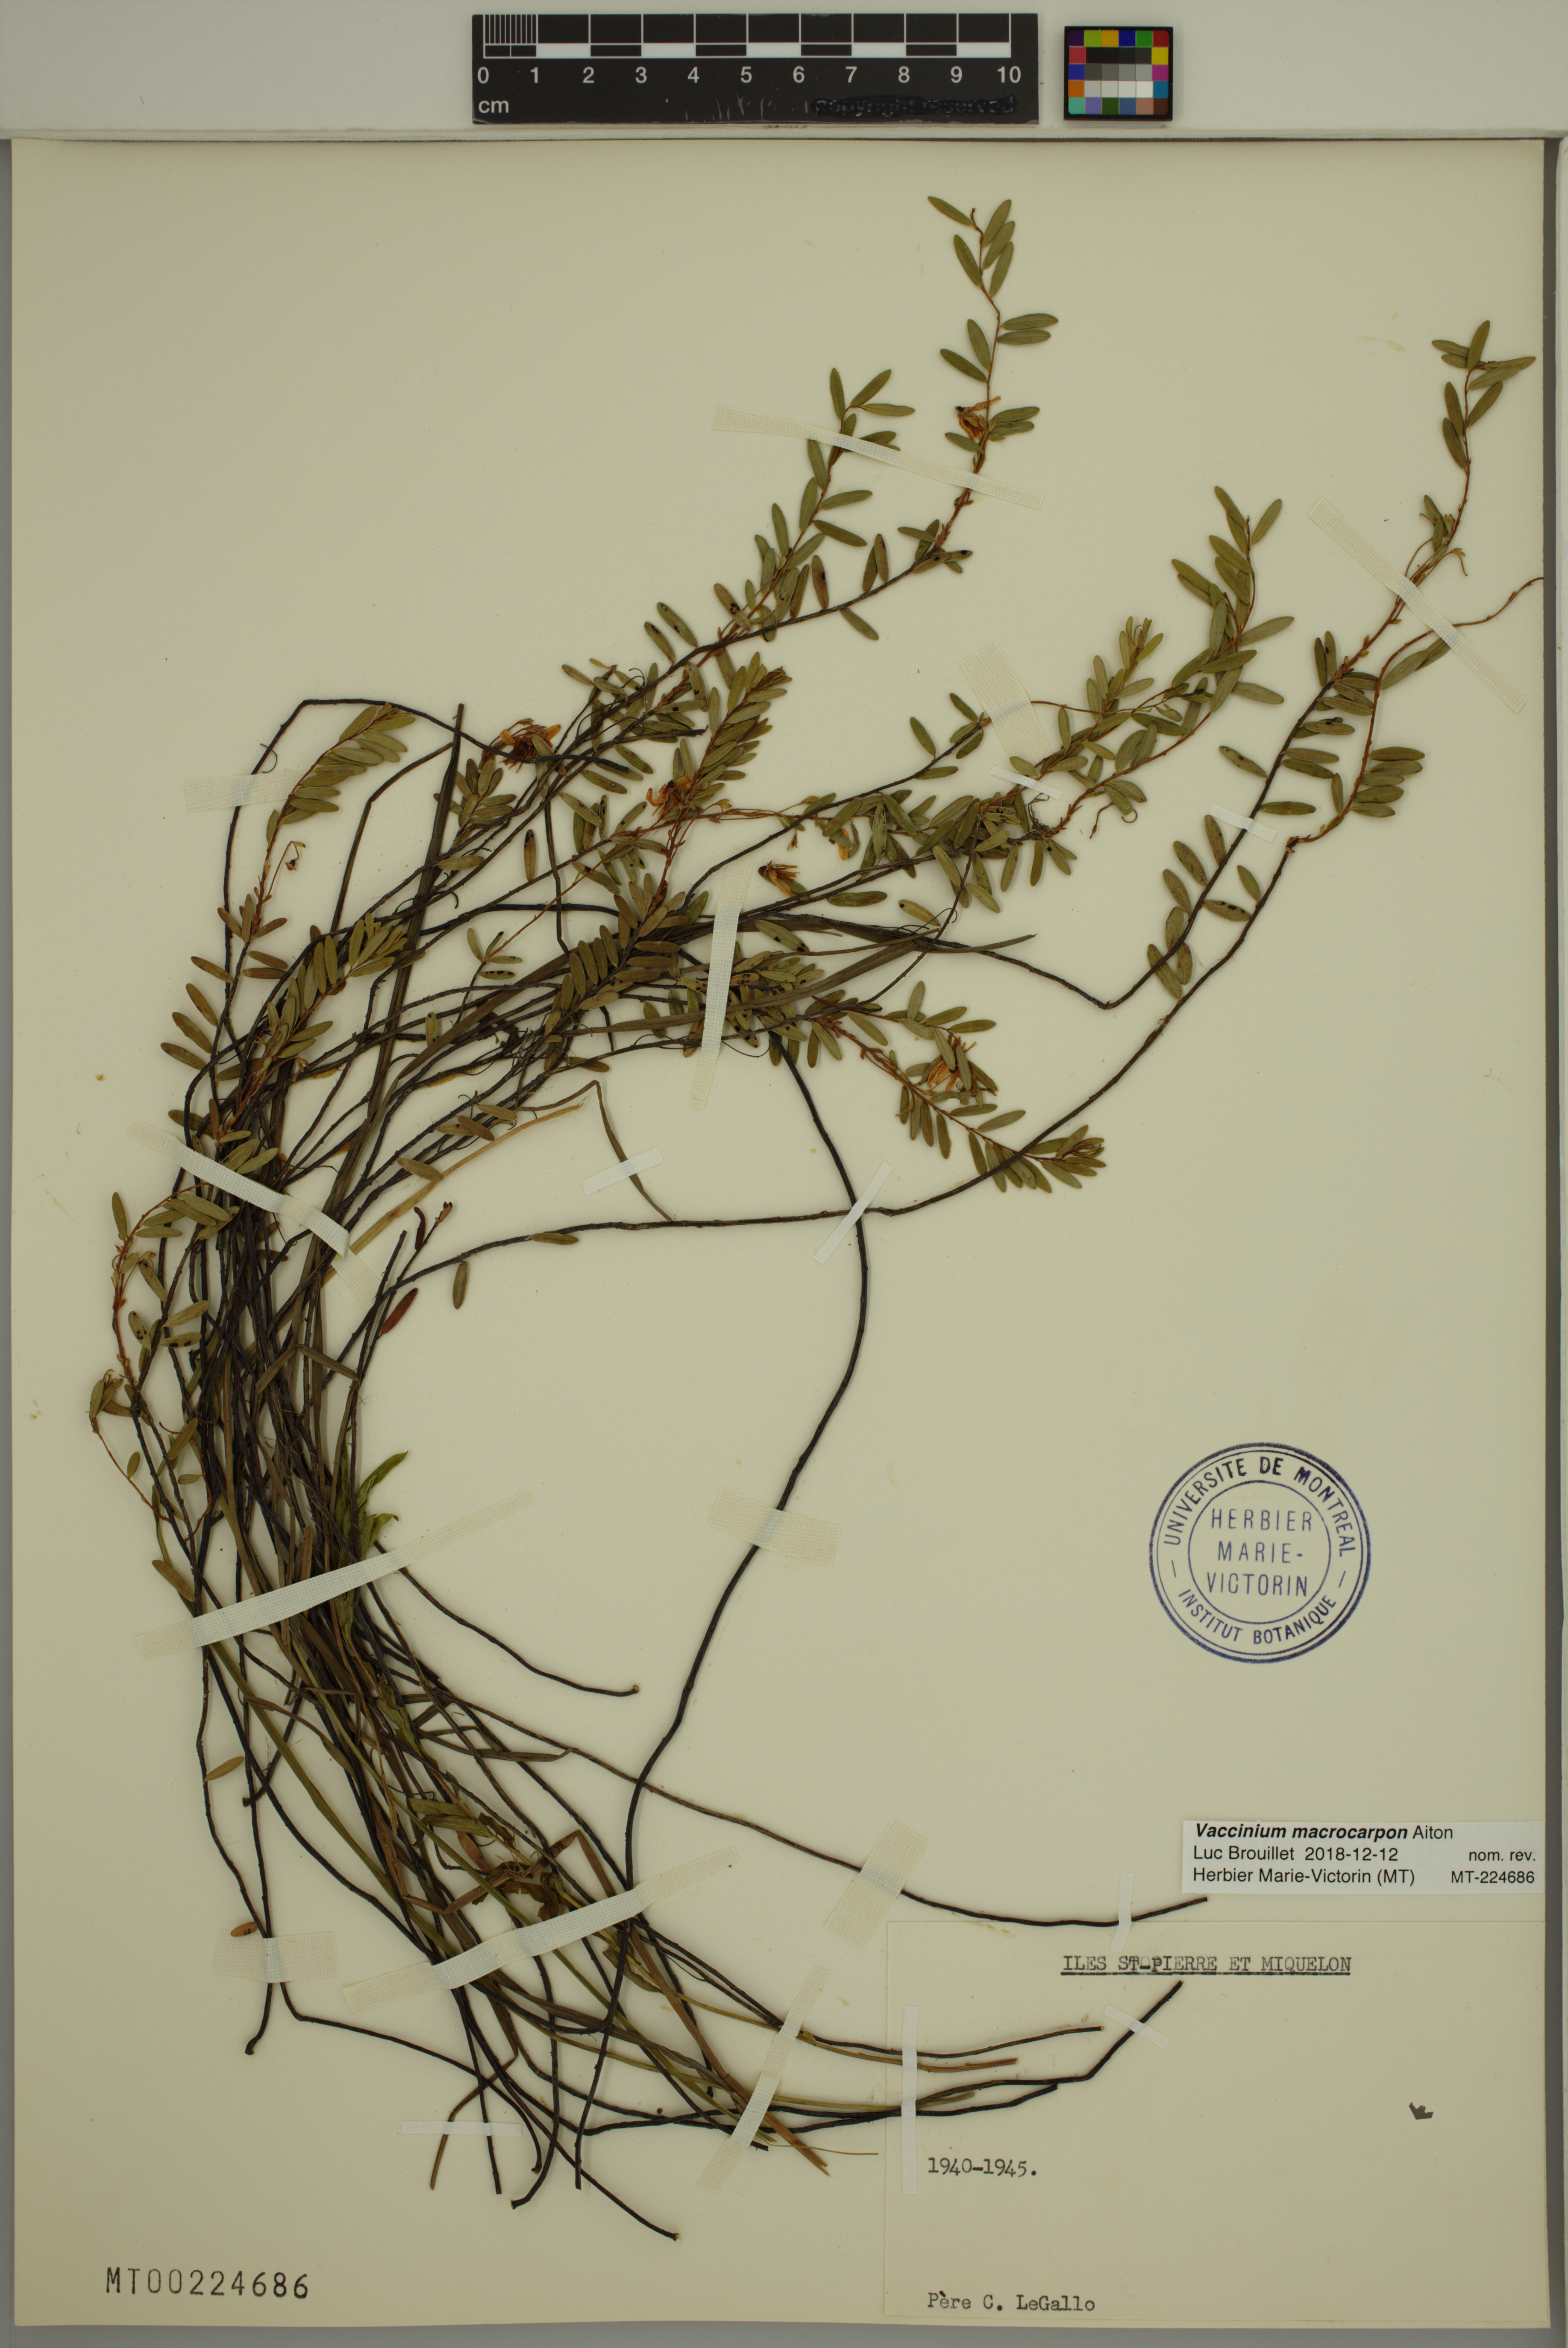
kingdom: Plantae
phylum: Tracheophyta
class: Magnoliopsida
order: Ericales
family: Ericaceae
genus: Vaccinium
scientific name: Vaccinium macrocarpon
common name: American cranberry
